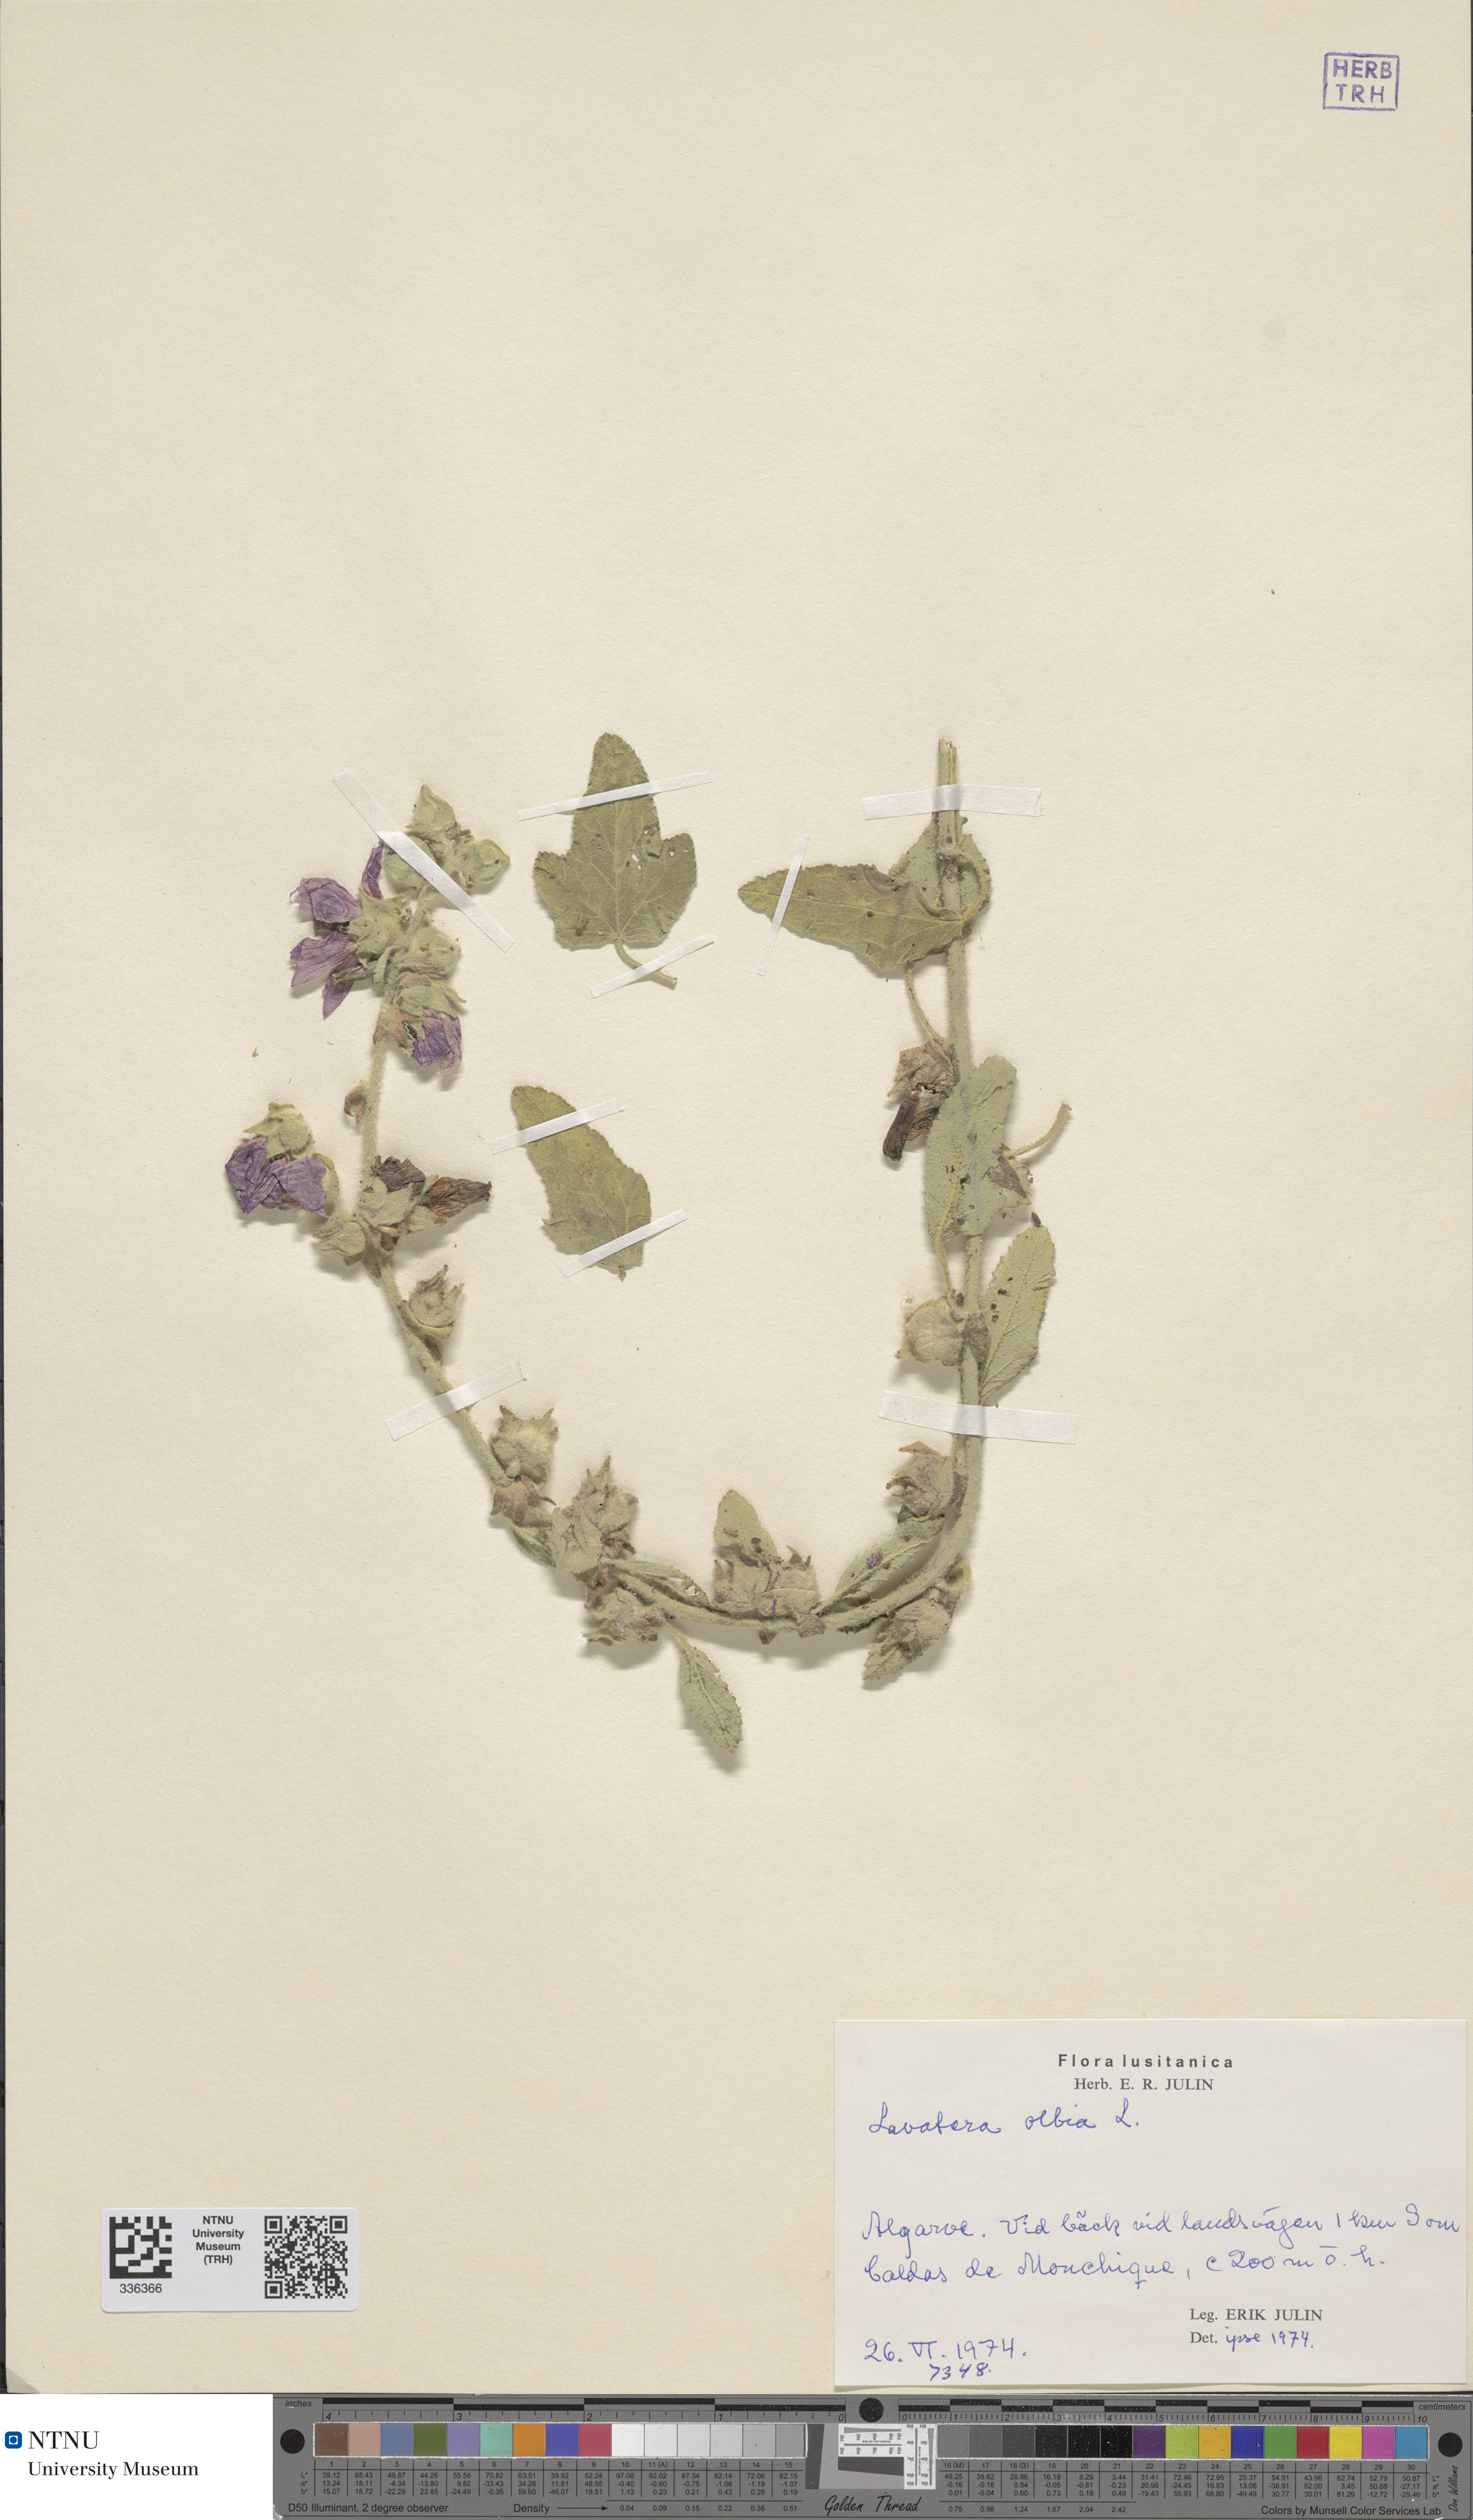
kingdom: Plantae
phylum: Tracheophyta
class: Magnoliopsida
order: Malvales
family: Malvaceae
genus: Malva
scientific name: Malva olbia
